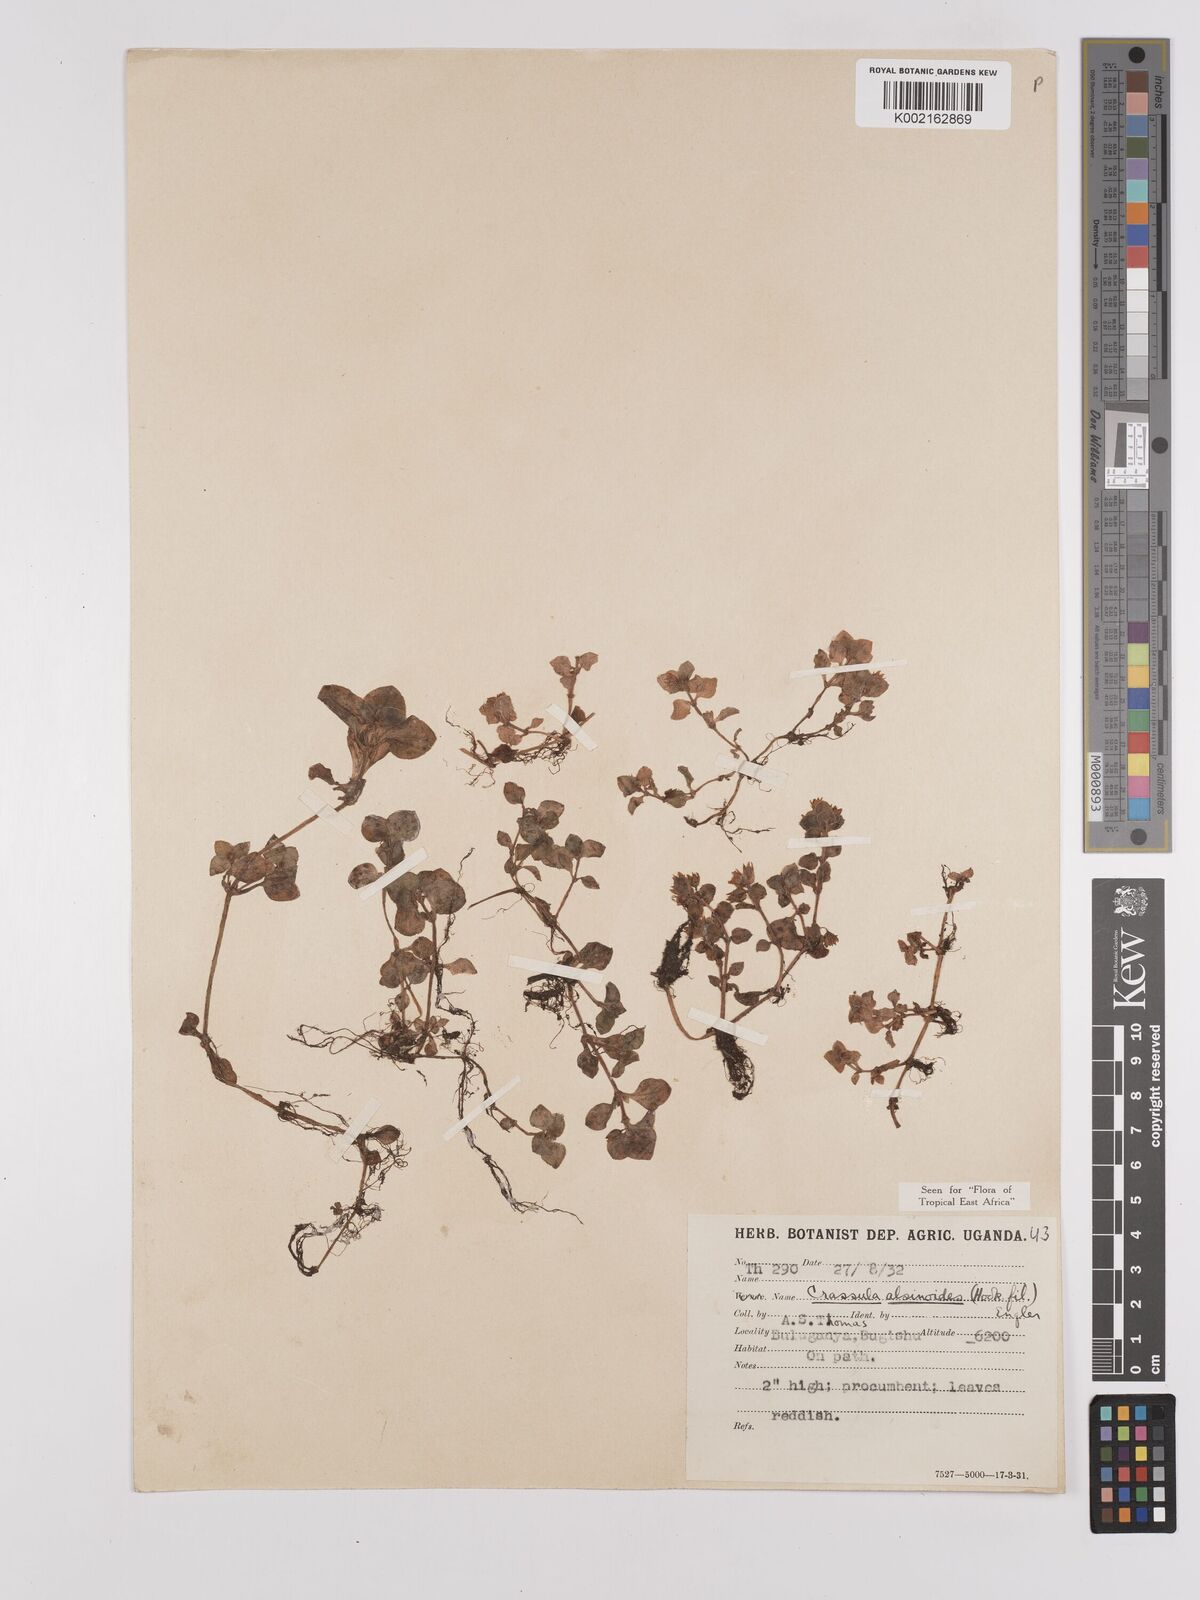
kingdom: Plantae
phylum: Tracheophyta
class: Magnoliopsida
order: Saxifragales
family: Crassulaceae
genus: Crassula
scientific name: Crassula alsinoides
